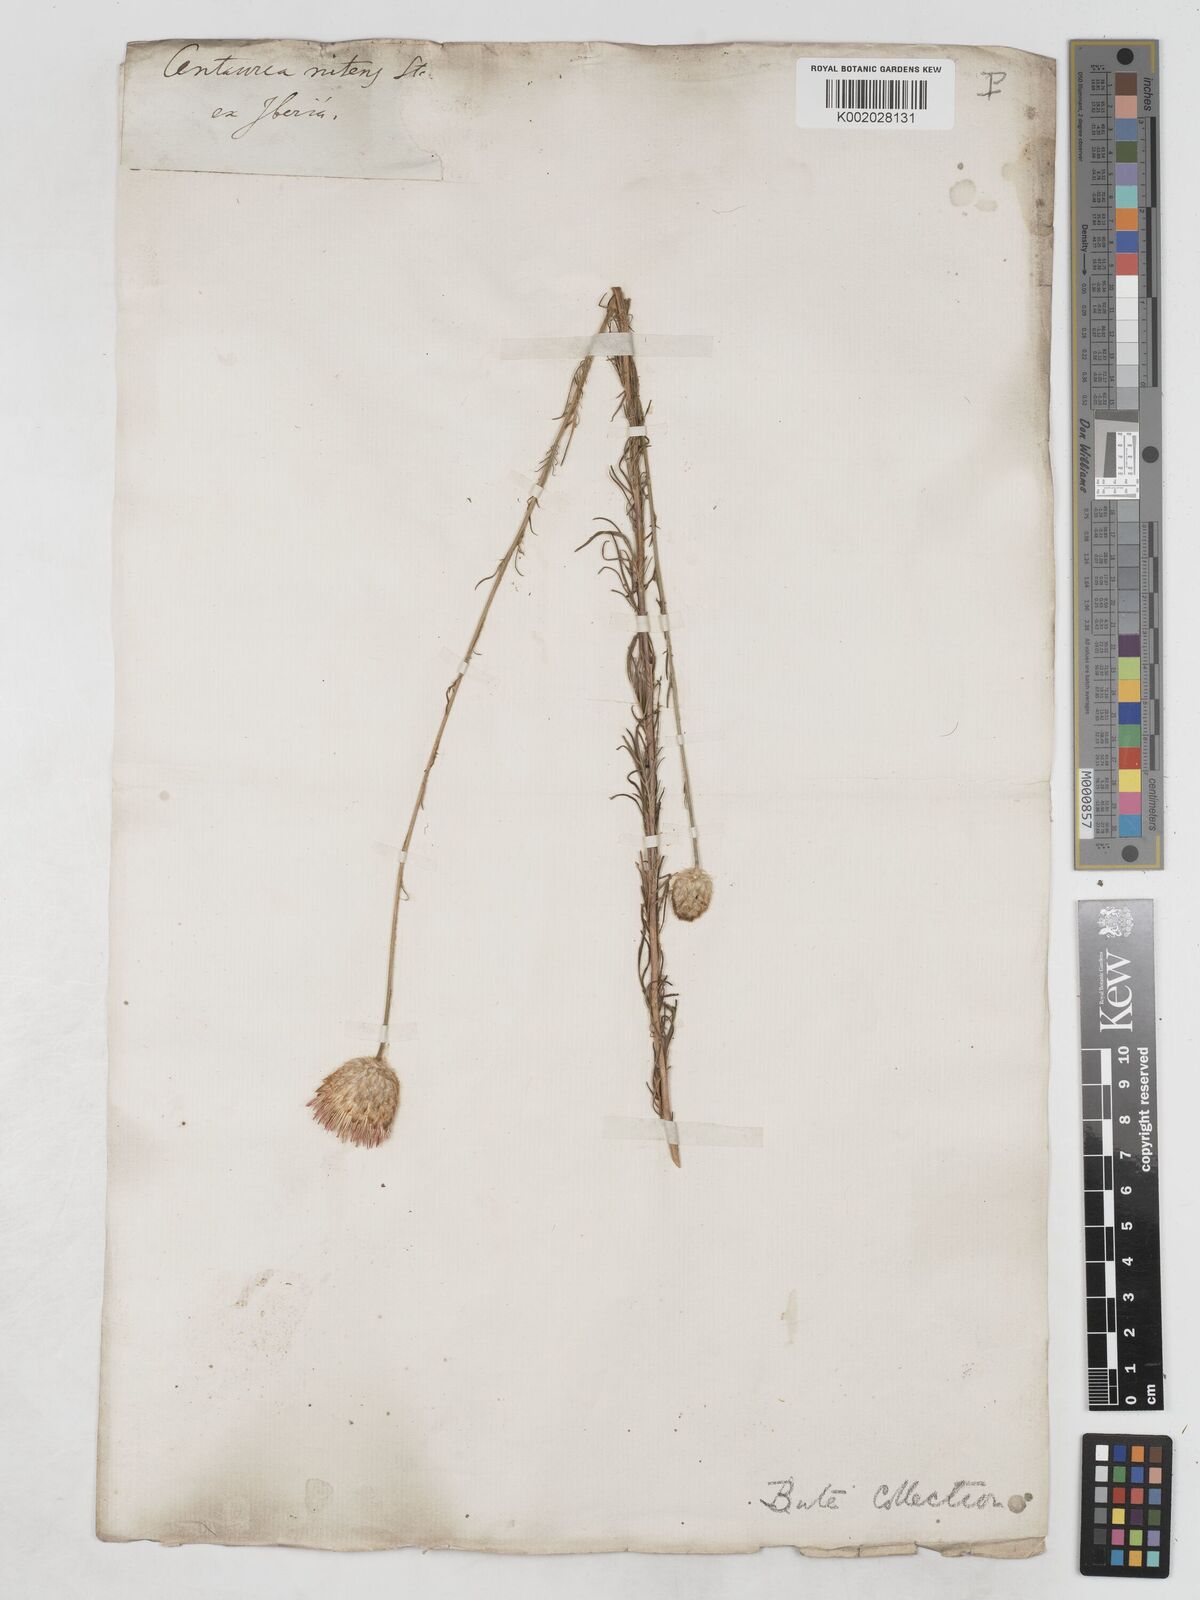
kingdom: Plantae
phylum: Tracheophyta
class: Magnoliopsida
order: Asterales
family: Asteraceae
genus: Callicephalus
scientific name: Callicephalus nitens
